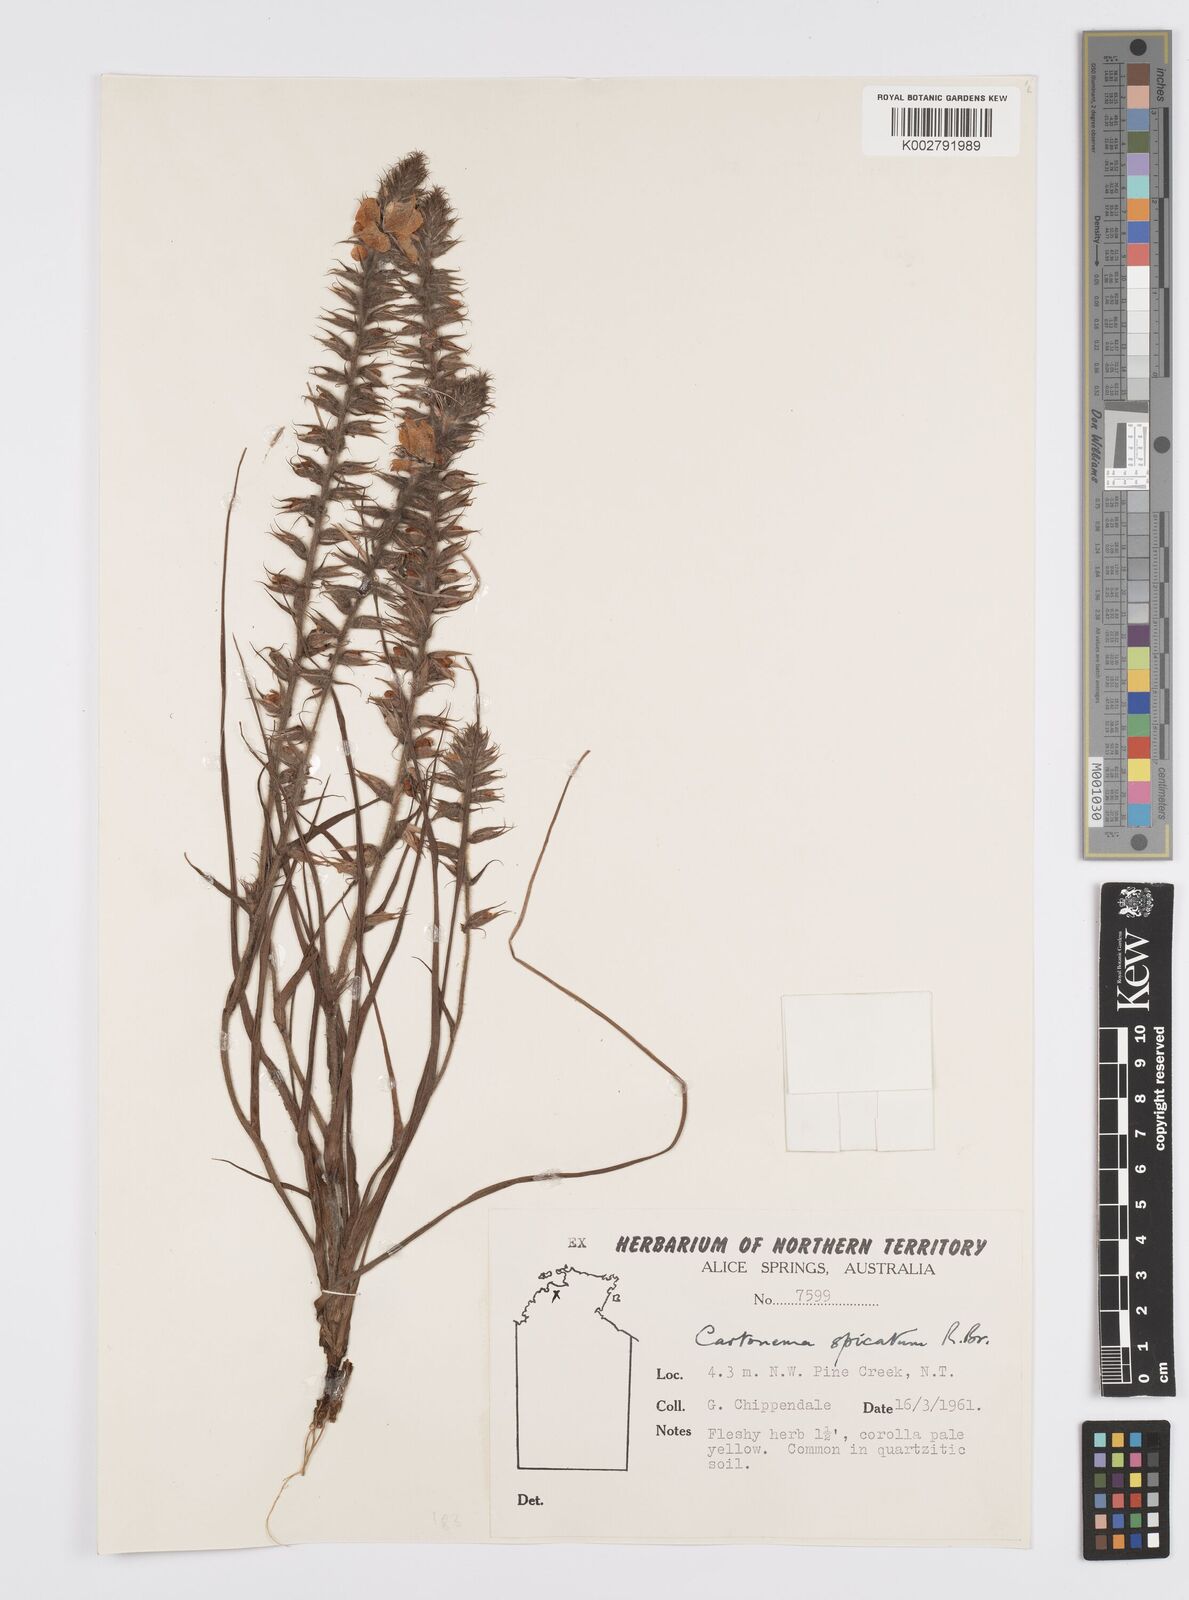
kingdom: Plantae
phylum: Tracheophyta
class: Liliopsida
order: Commelinales
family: Commelinaceae
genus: Cartonema
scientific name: Cartonema spicatum
